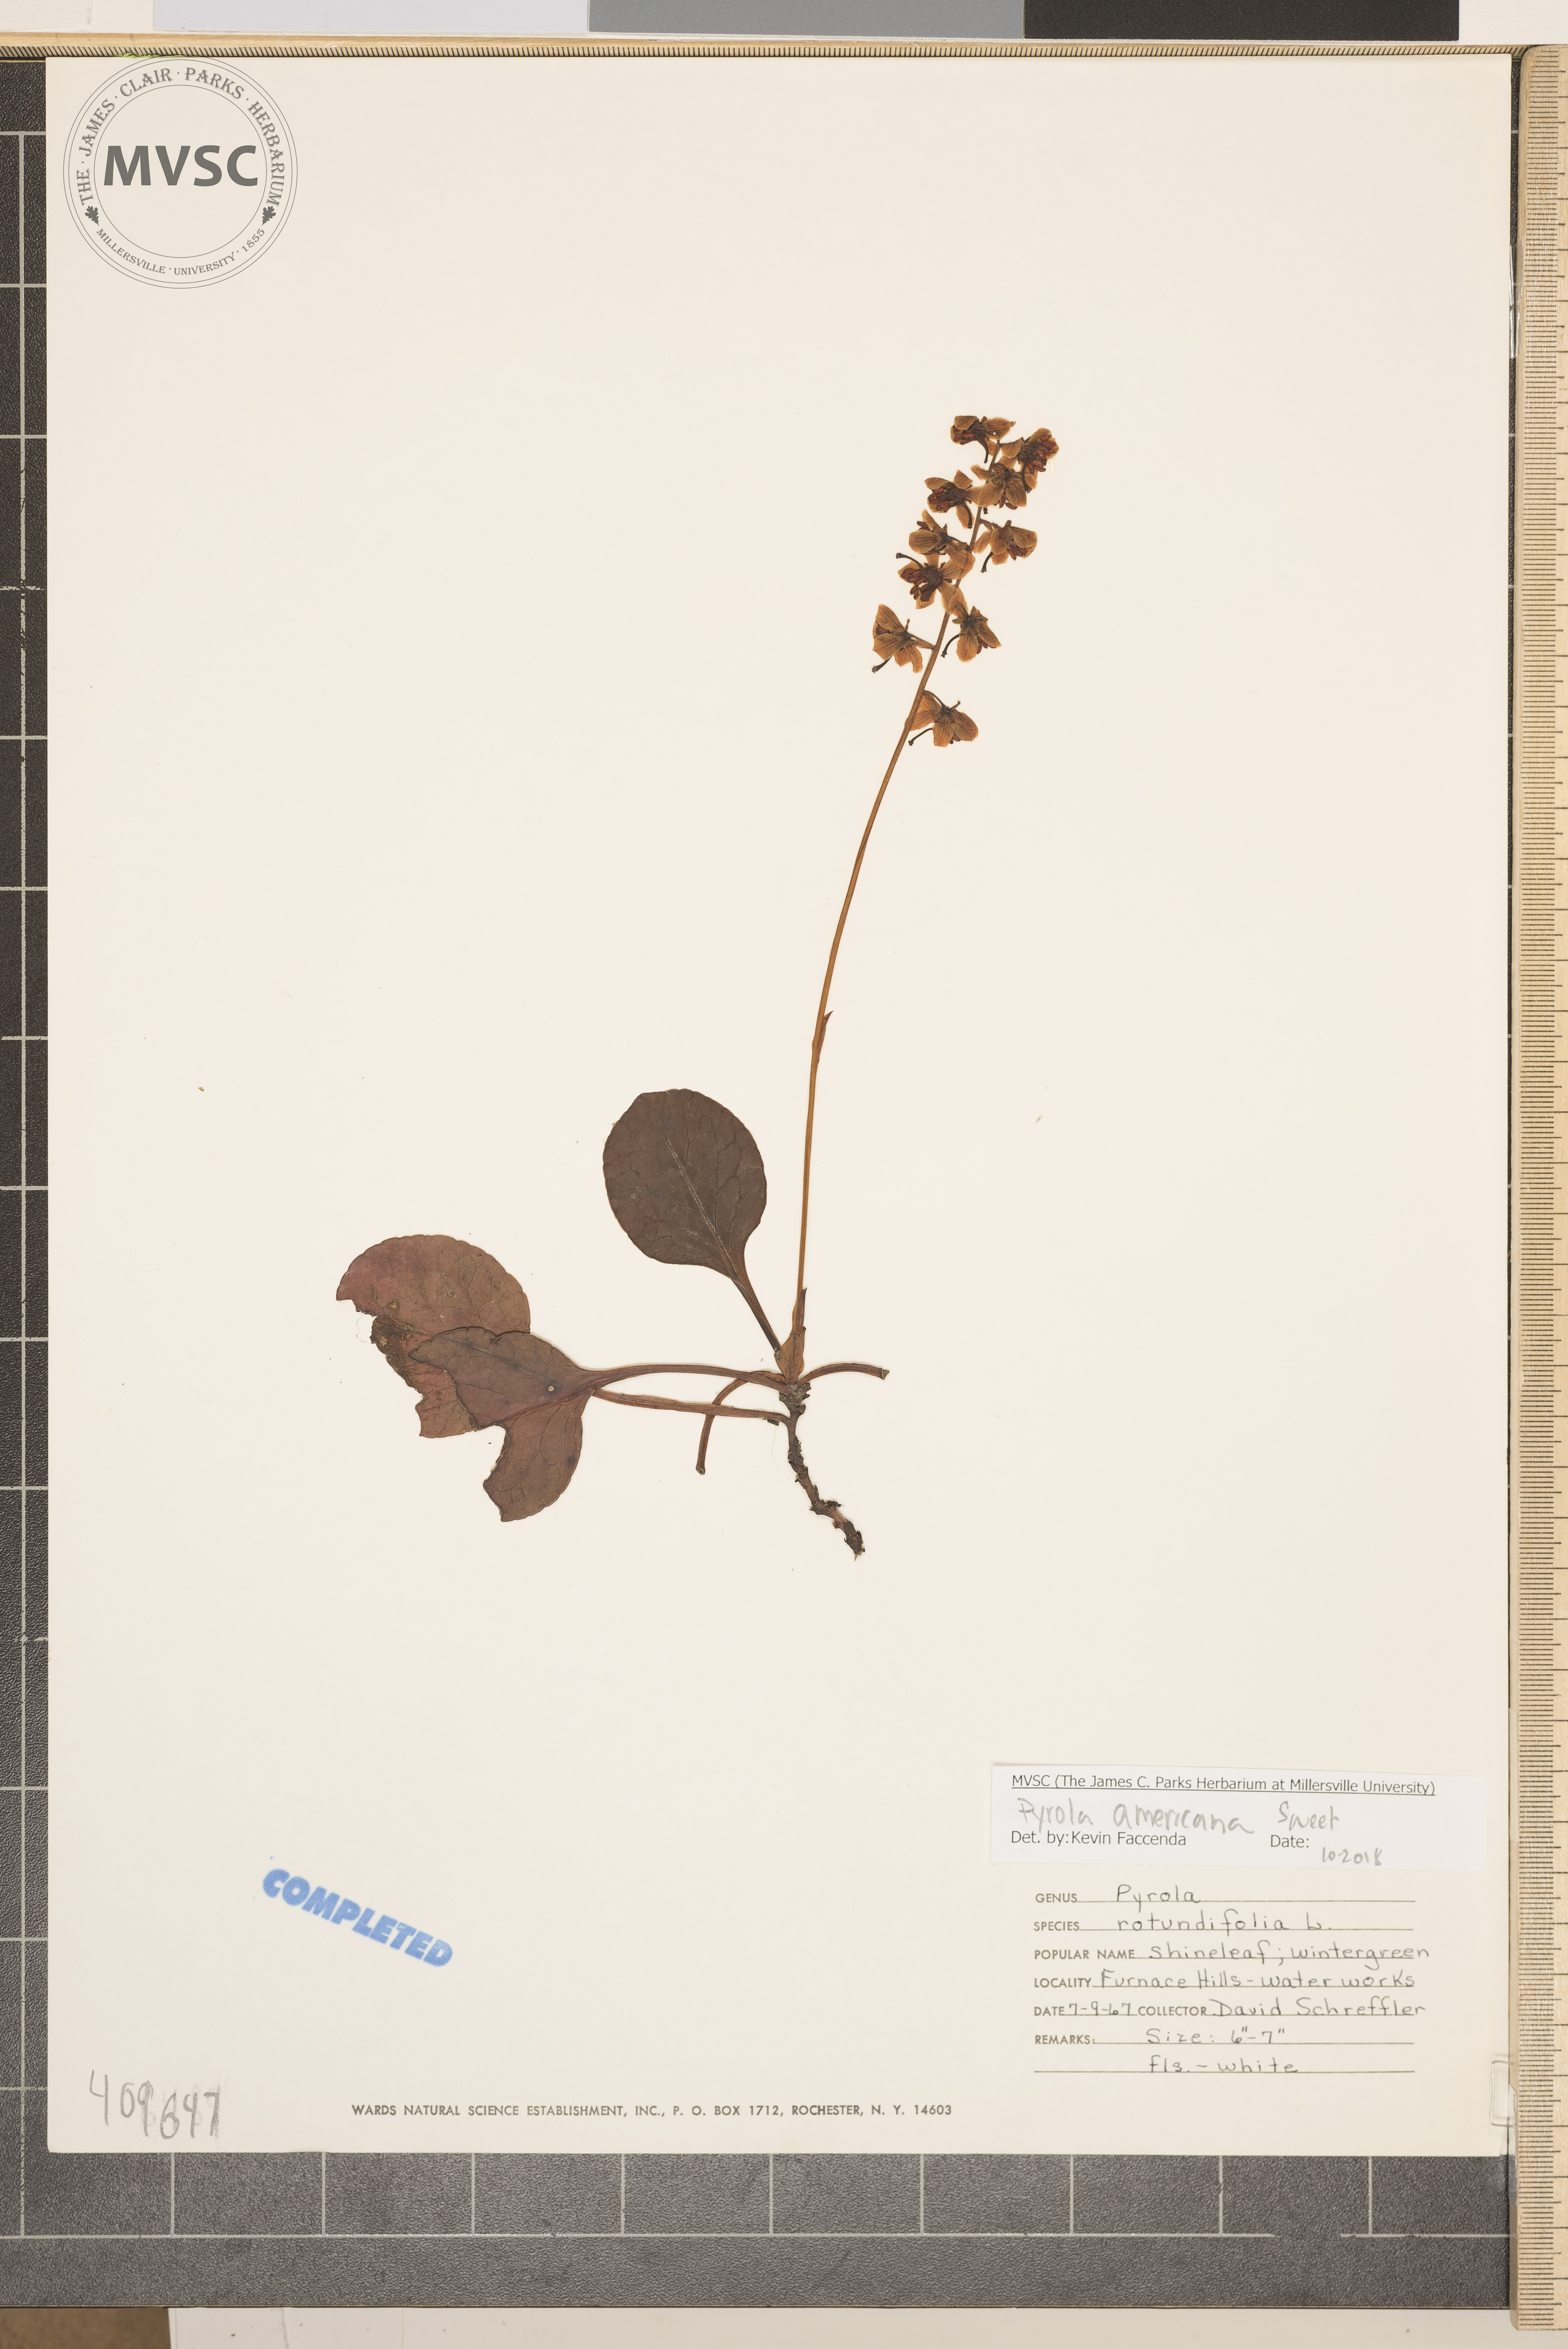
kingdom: Plantae
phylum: Tracheophyta
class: Magnoliopsida
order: Ericales
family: Ericaceae
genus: Pyrola
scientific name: Pyrola americana
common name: American wintergreen
